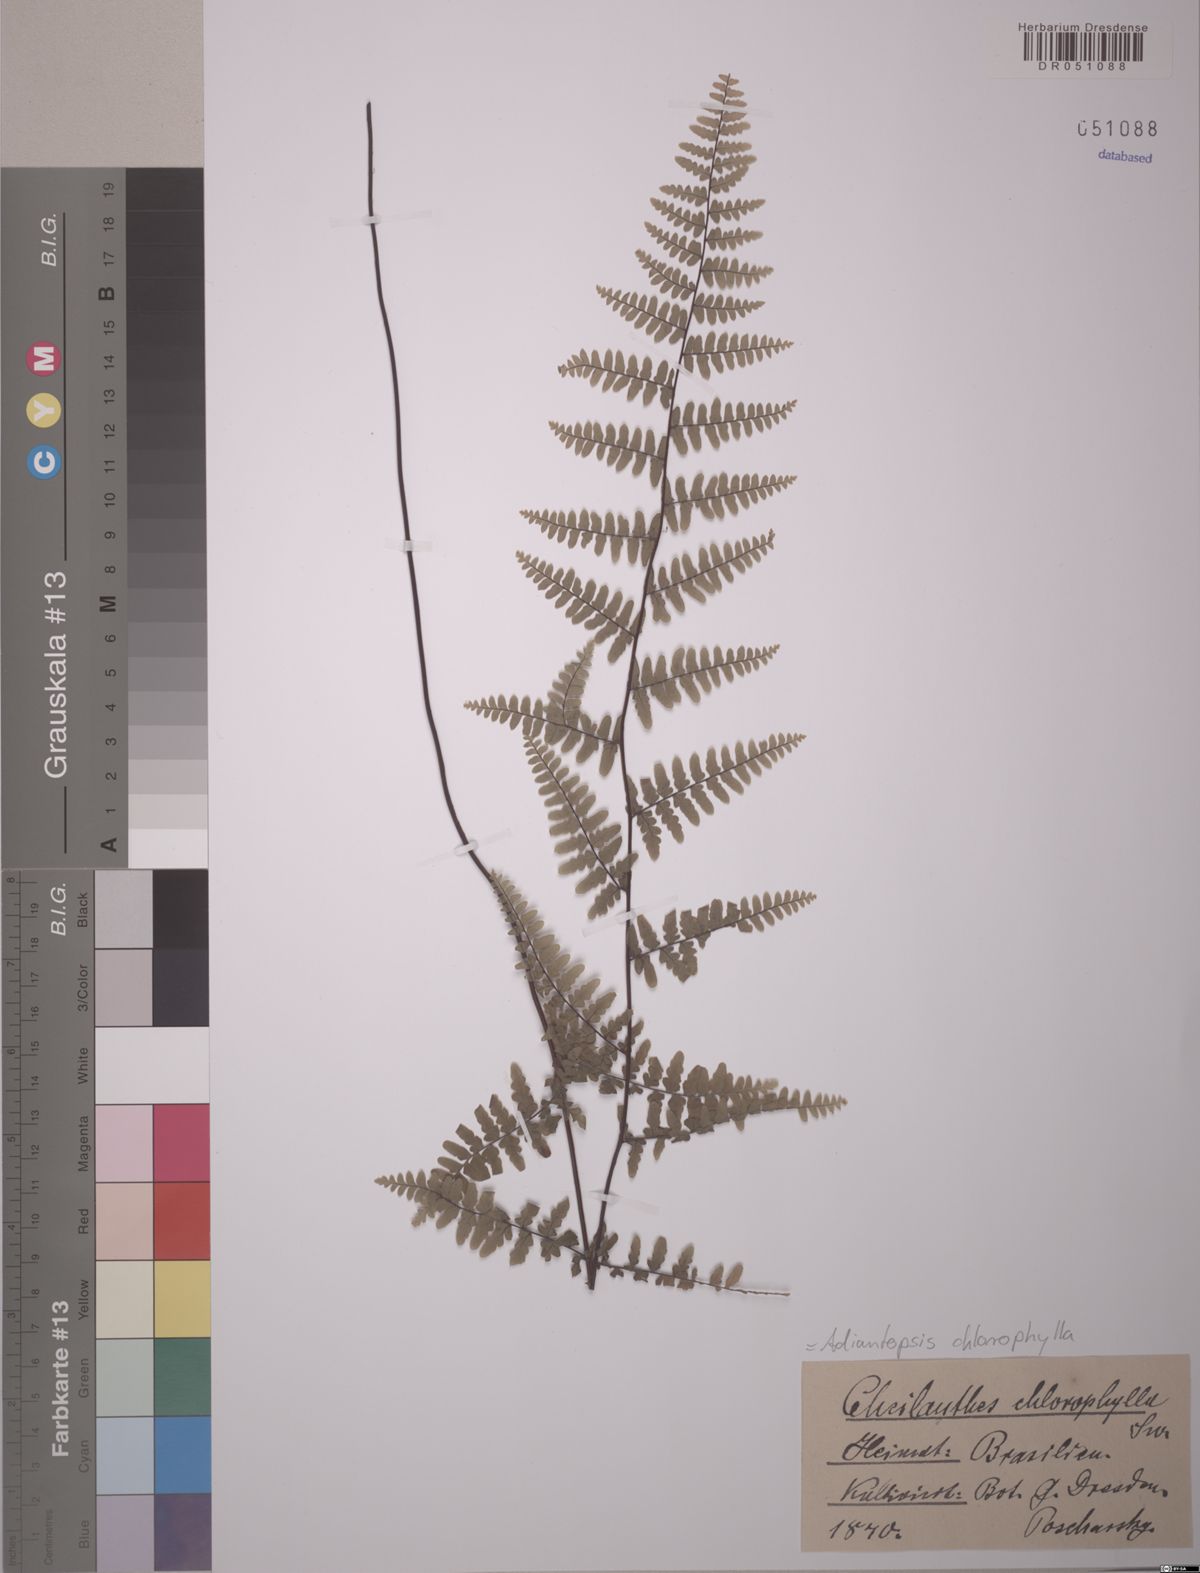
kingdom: Plantae
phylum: Tracheophyta
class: Polypodiopsida
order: Polypodiales
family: Pteridaceae
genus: Adiantopsis
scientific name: Adiantopsis chlorophylla
